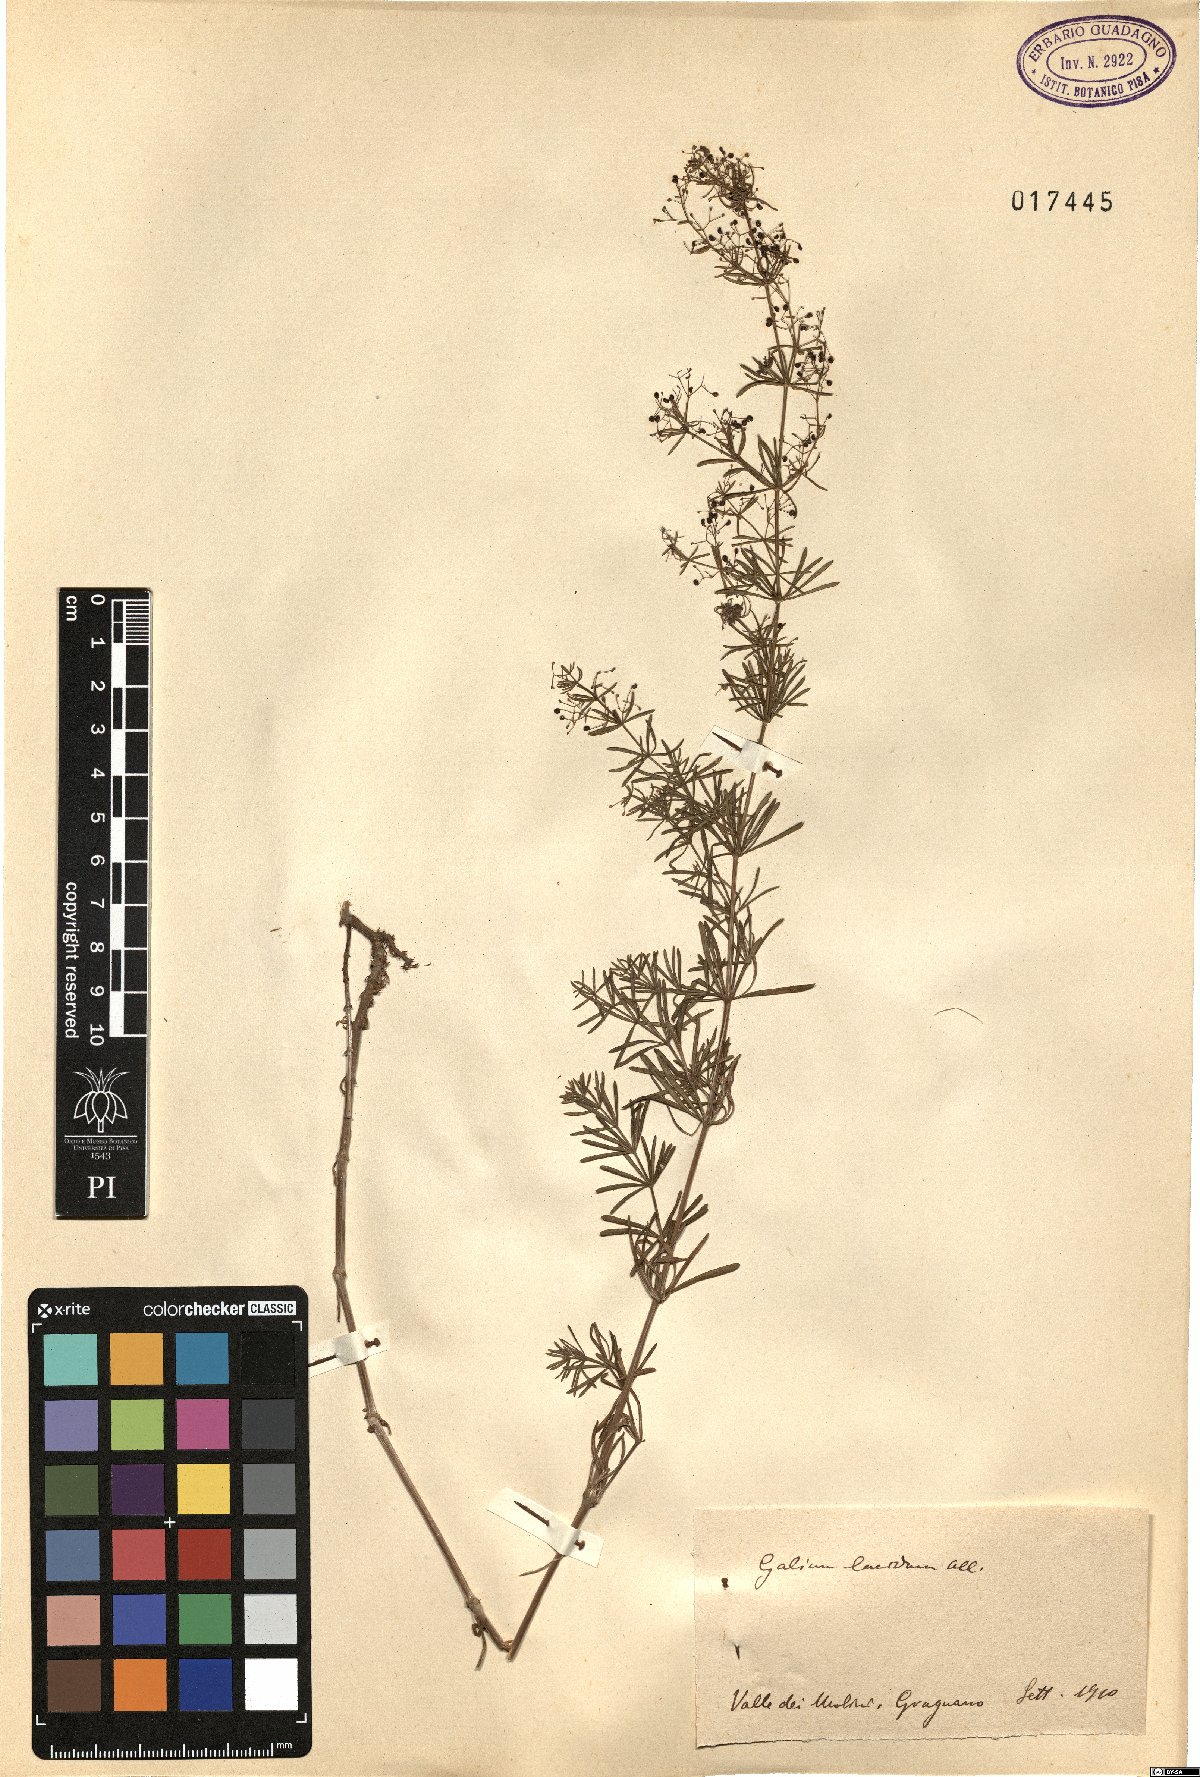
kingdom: Plantae
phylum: Tracheophyta
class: Magnoliopsida
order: Gentianales
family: Rubiaceae
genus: Galium
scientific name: Galium lucidum
